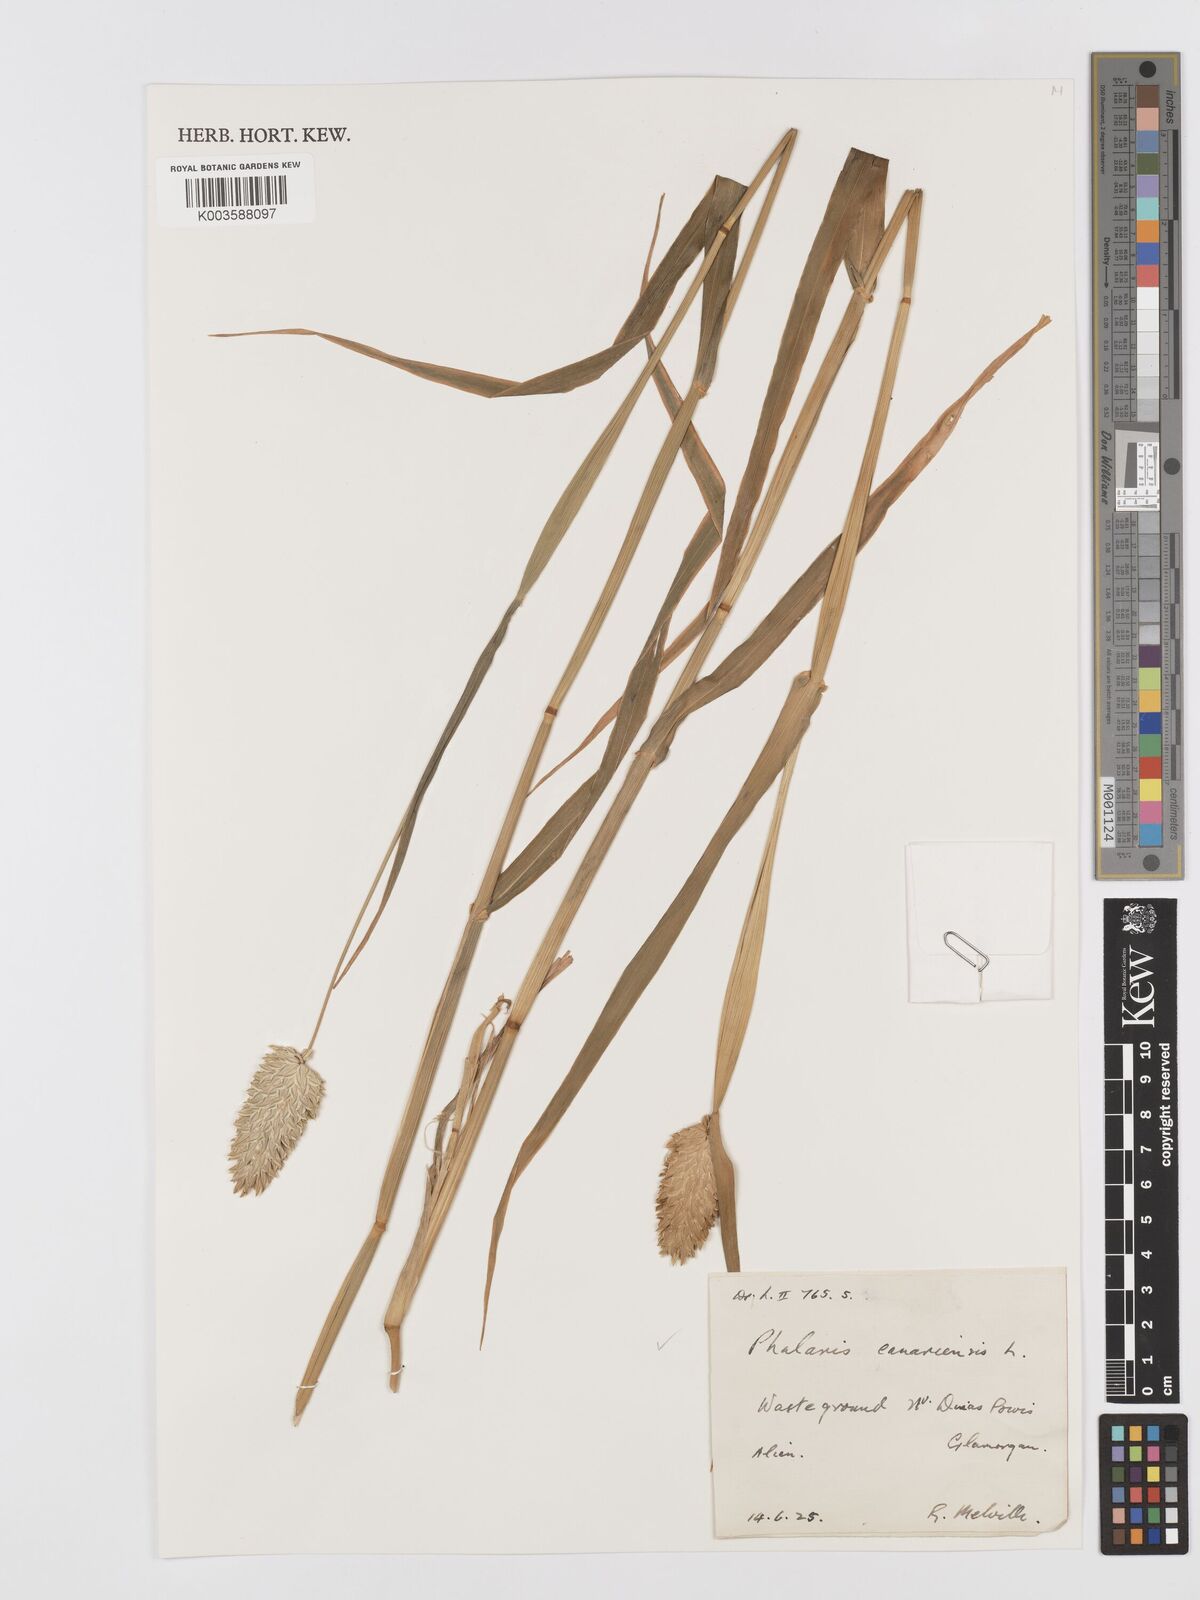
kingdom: Plantae
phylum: Tracheophyta
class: Liliopsida
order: Poales
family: Poaceae
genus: Phalaris
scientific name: Phalaris canariensis
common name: Annual canarygrass
